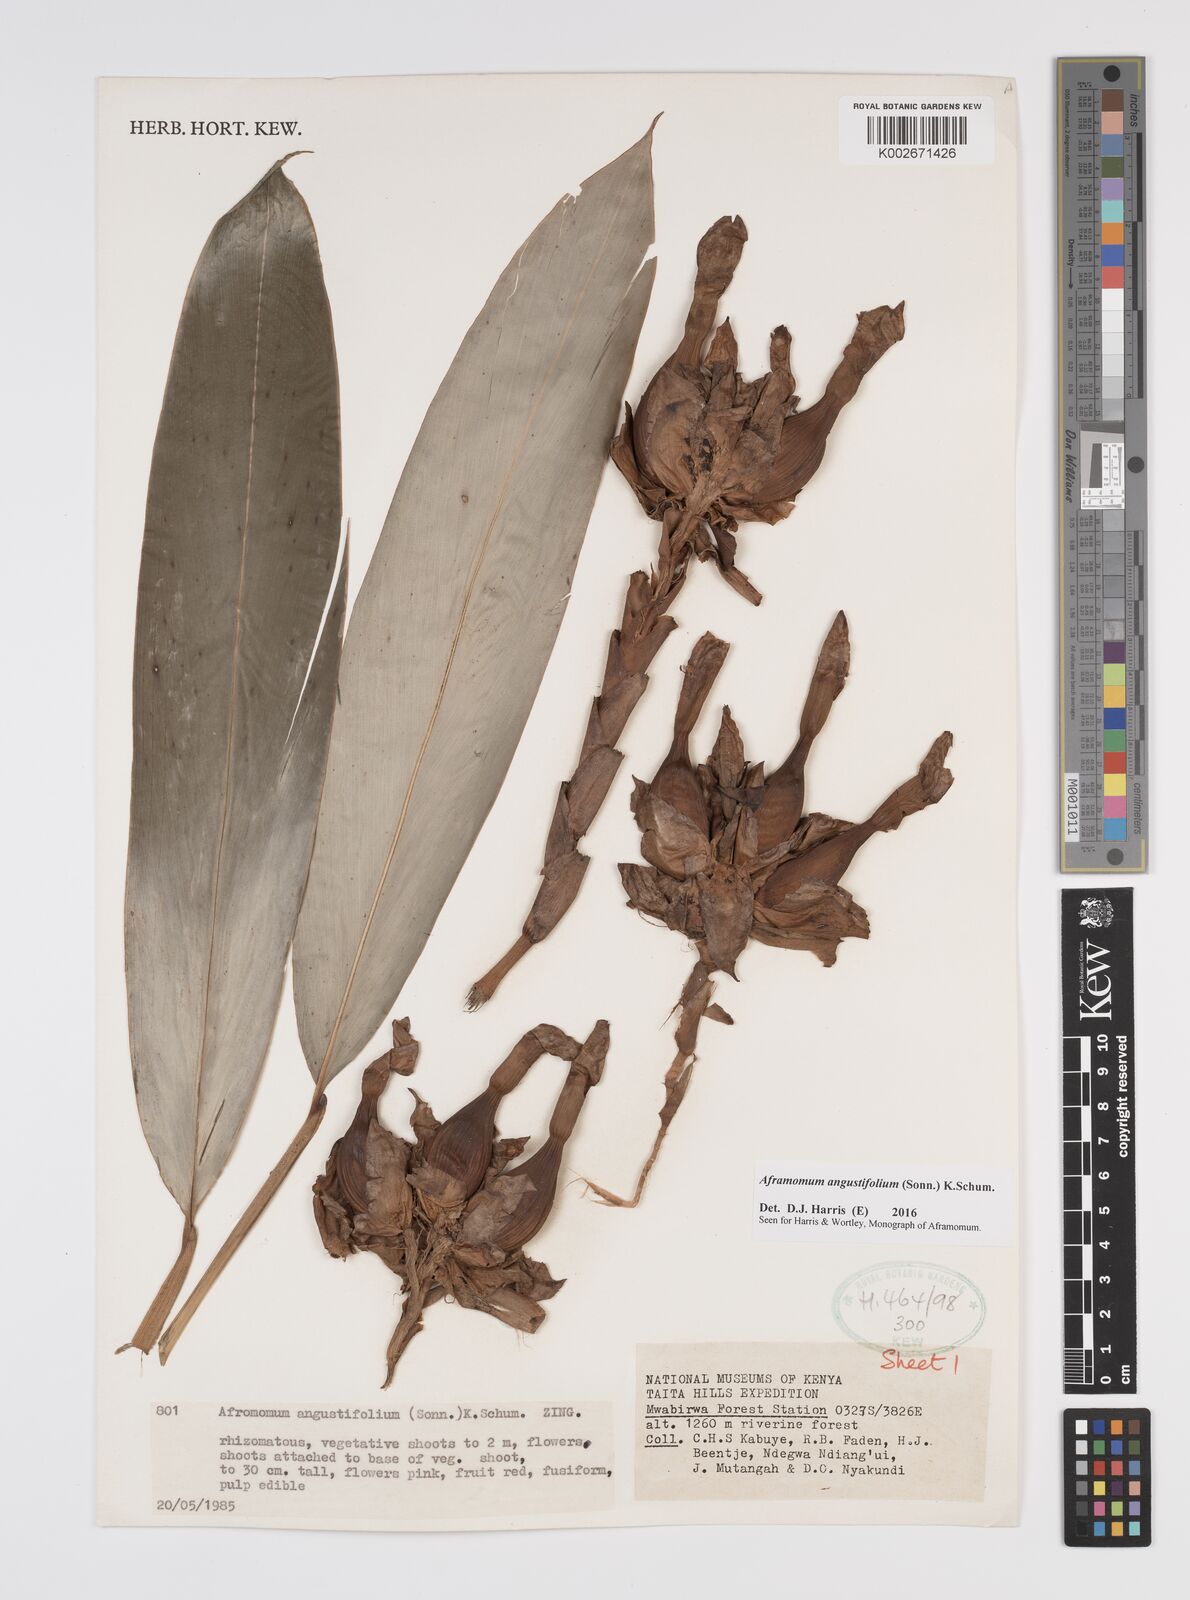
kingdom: Plantae
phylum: Tracheophyta
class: Liliopsida
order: Zingiberales
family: Zingiberaceae
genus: Aframomum
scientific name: Aframomum angustifolium
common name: Guinea grains
